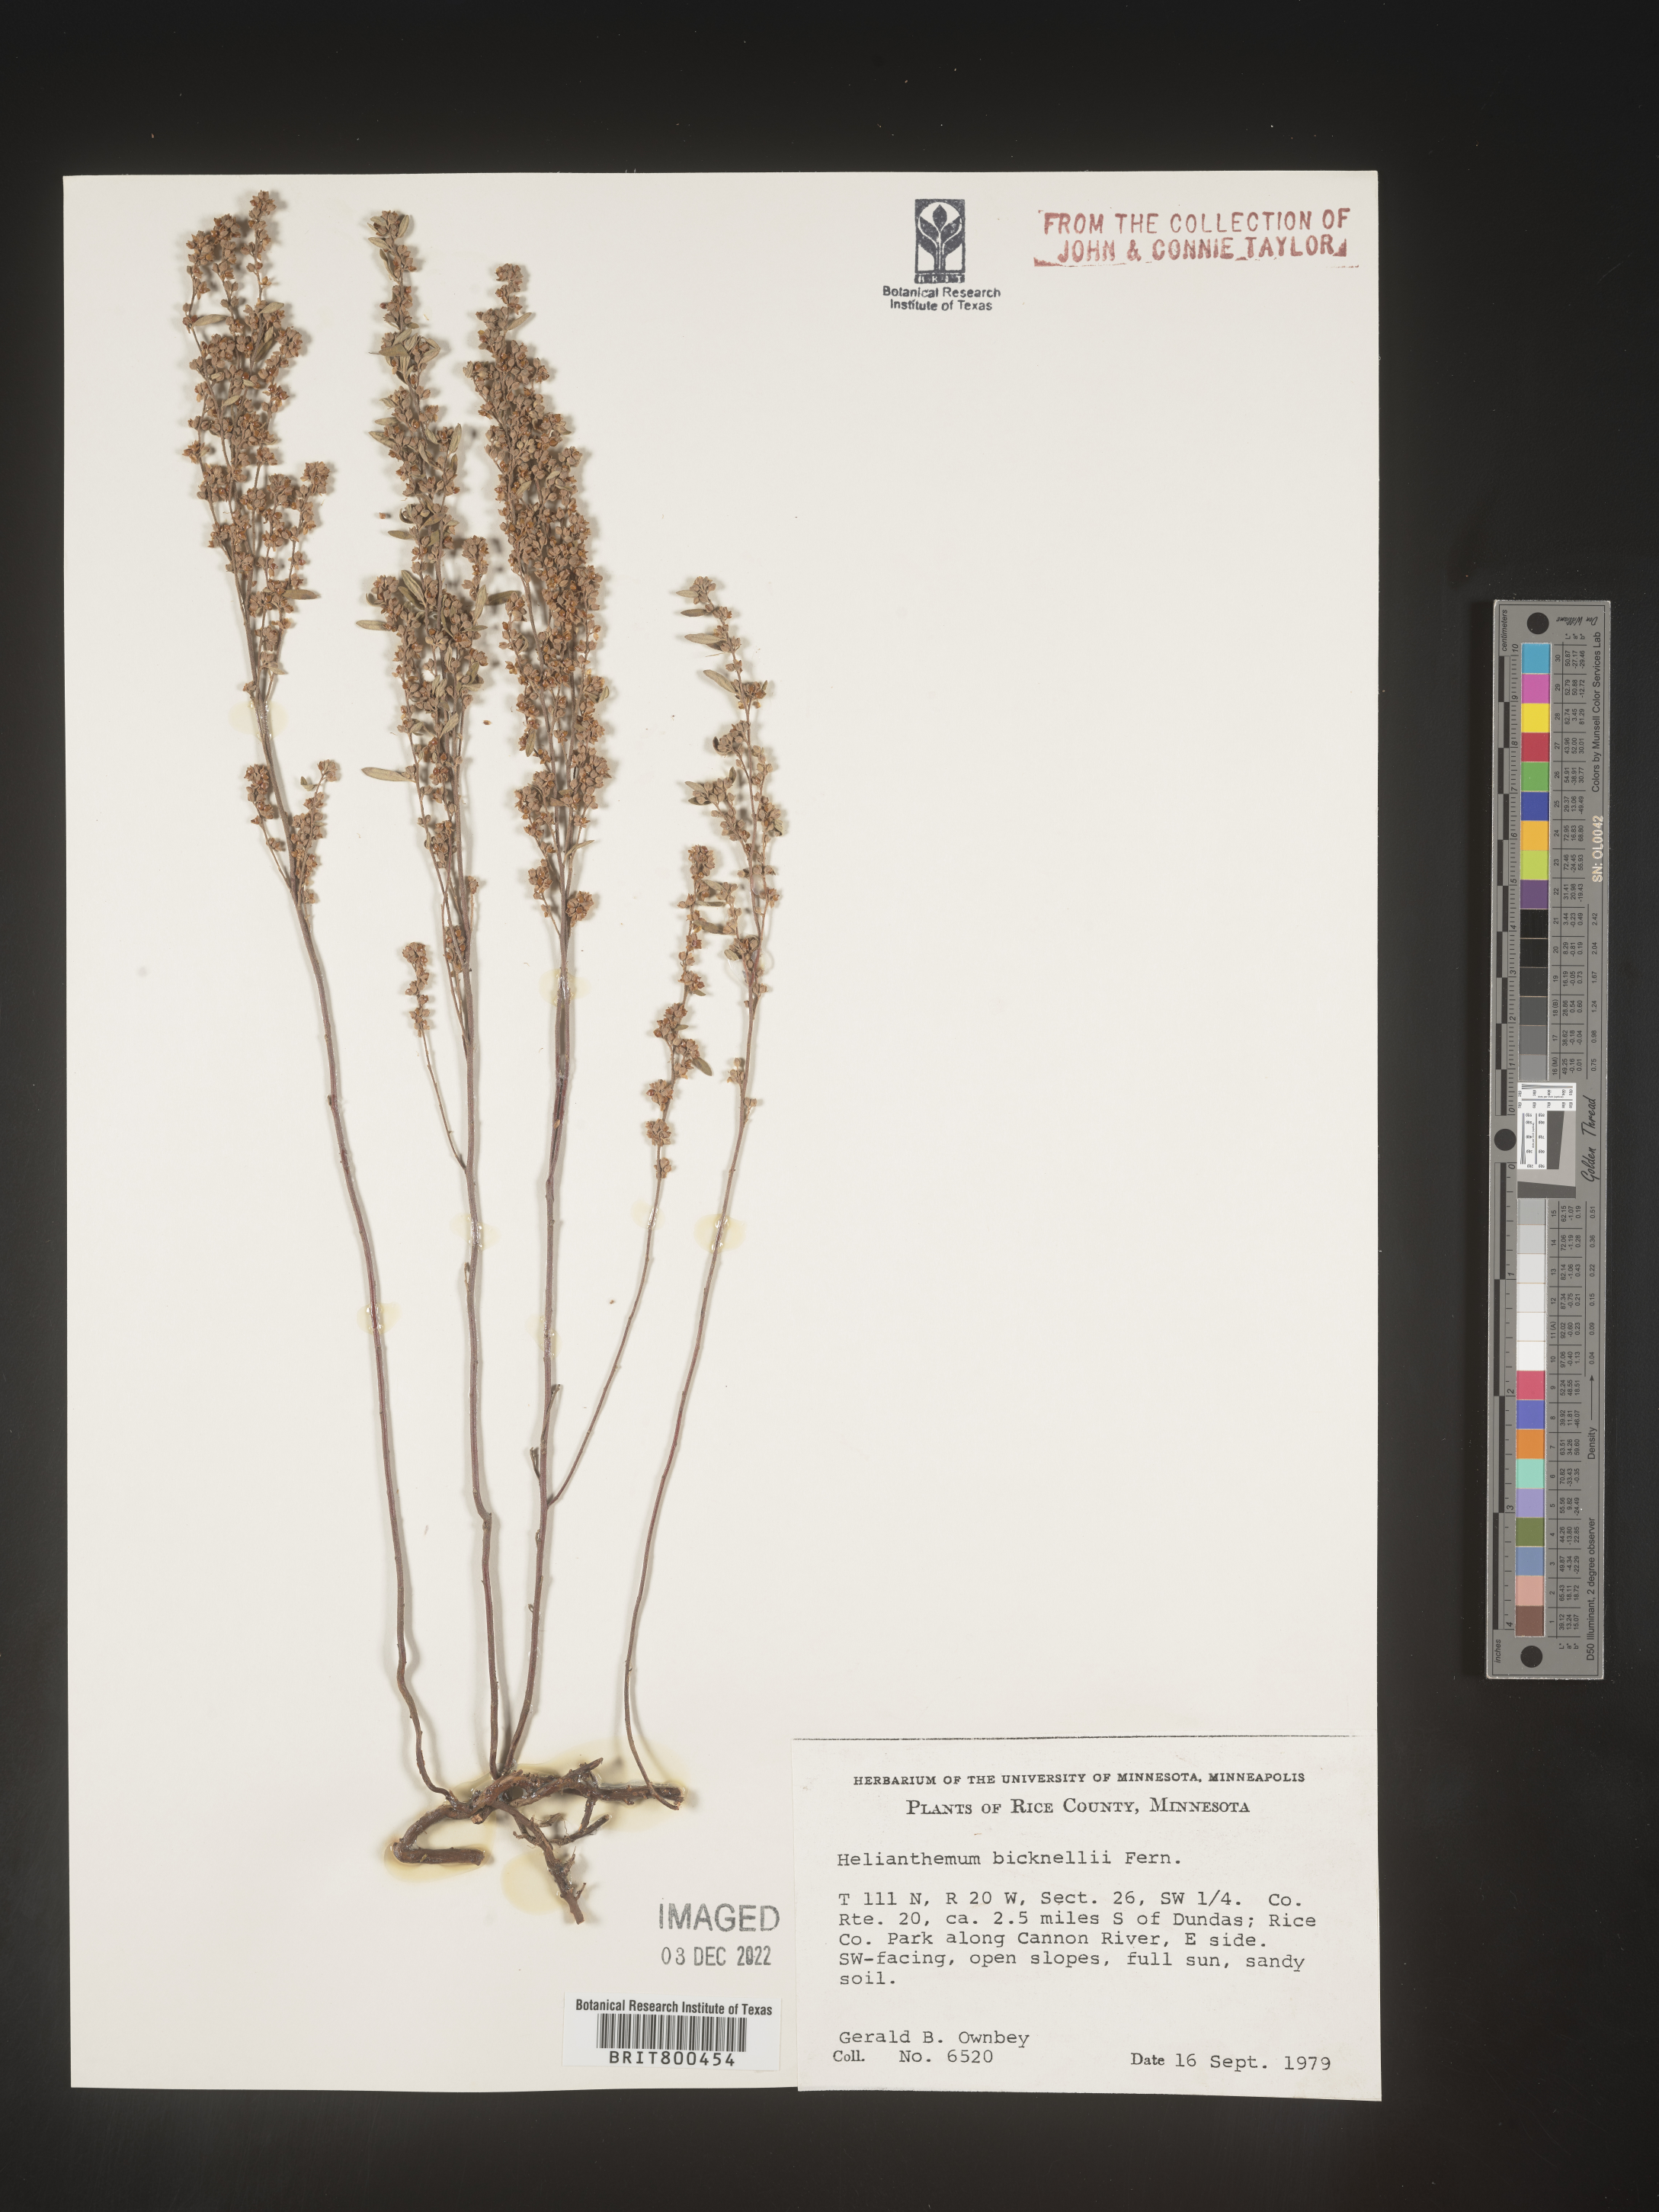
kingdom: Plantae
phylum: Tracheophyta
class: Magnoliopsida
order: Malvales
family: Cistaceae
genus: Helianthemum
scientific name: Helianthemum
